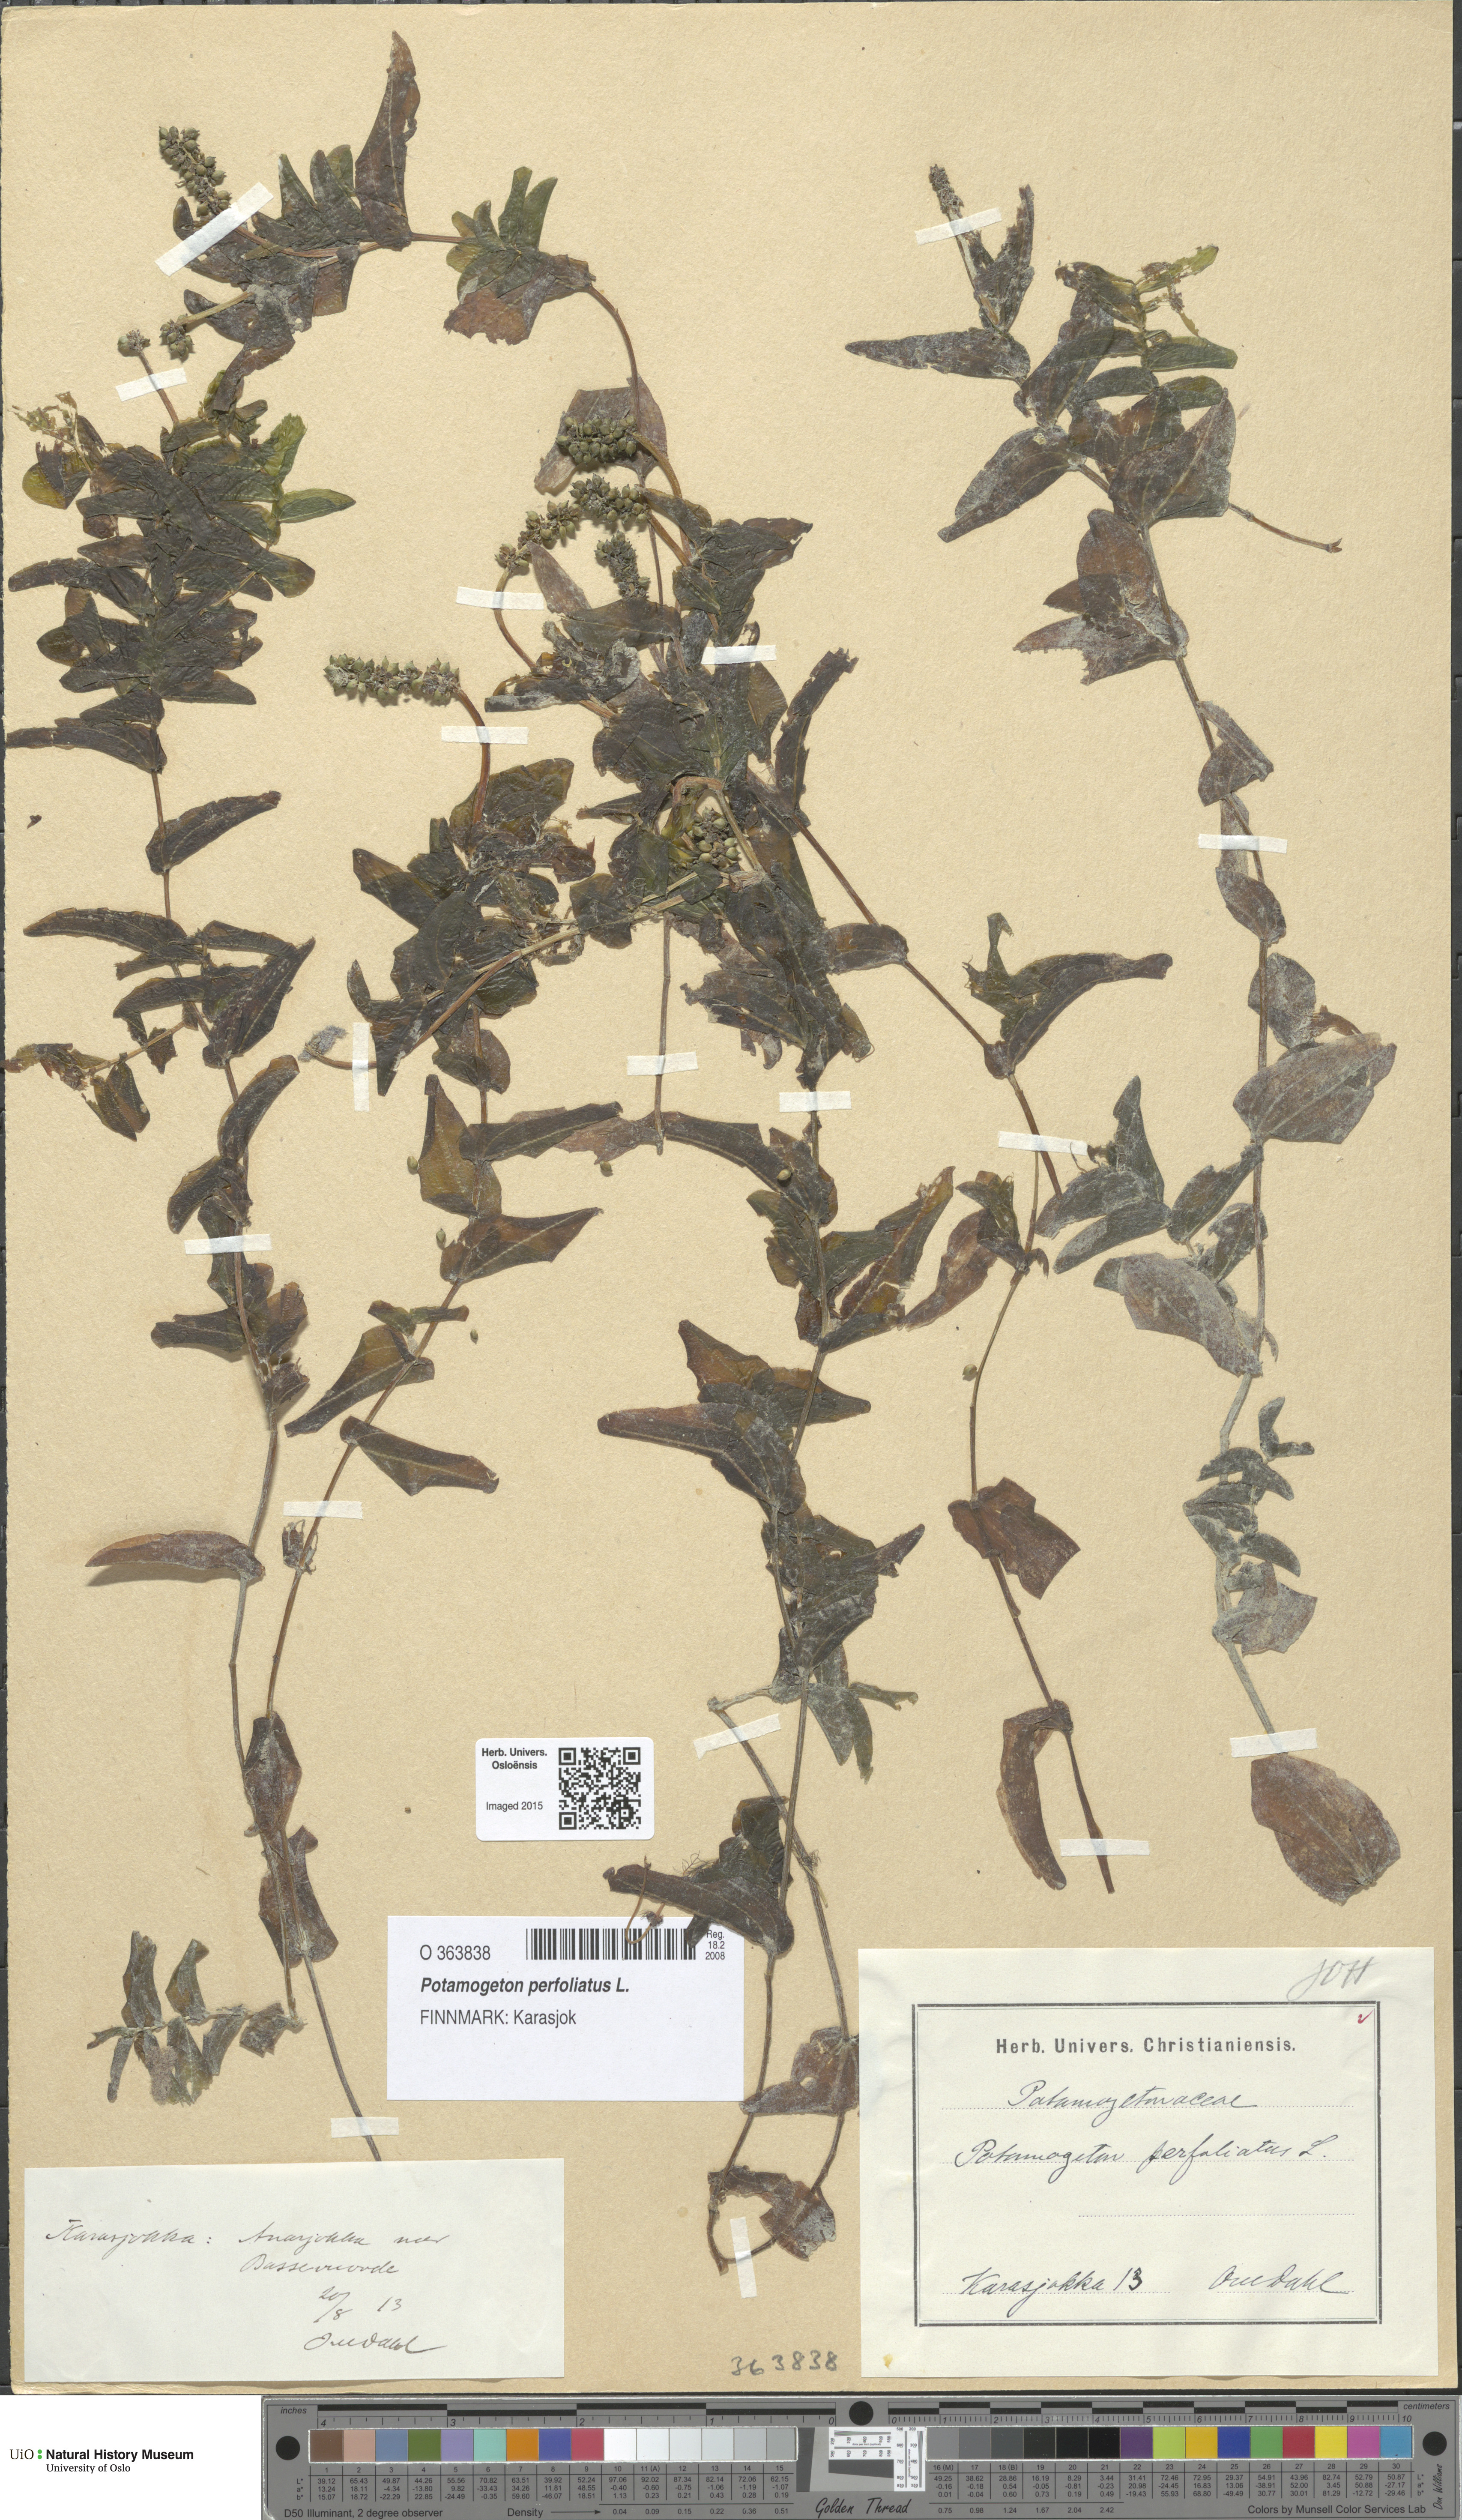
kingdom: Plantae
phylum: Tracheophyta
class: Liliopsida
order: Alismatales
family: Potamogetonaceae
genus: Potamogeton
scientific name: Potamogeton perfoliatus
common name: Perfoliate pondweed
